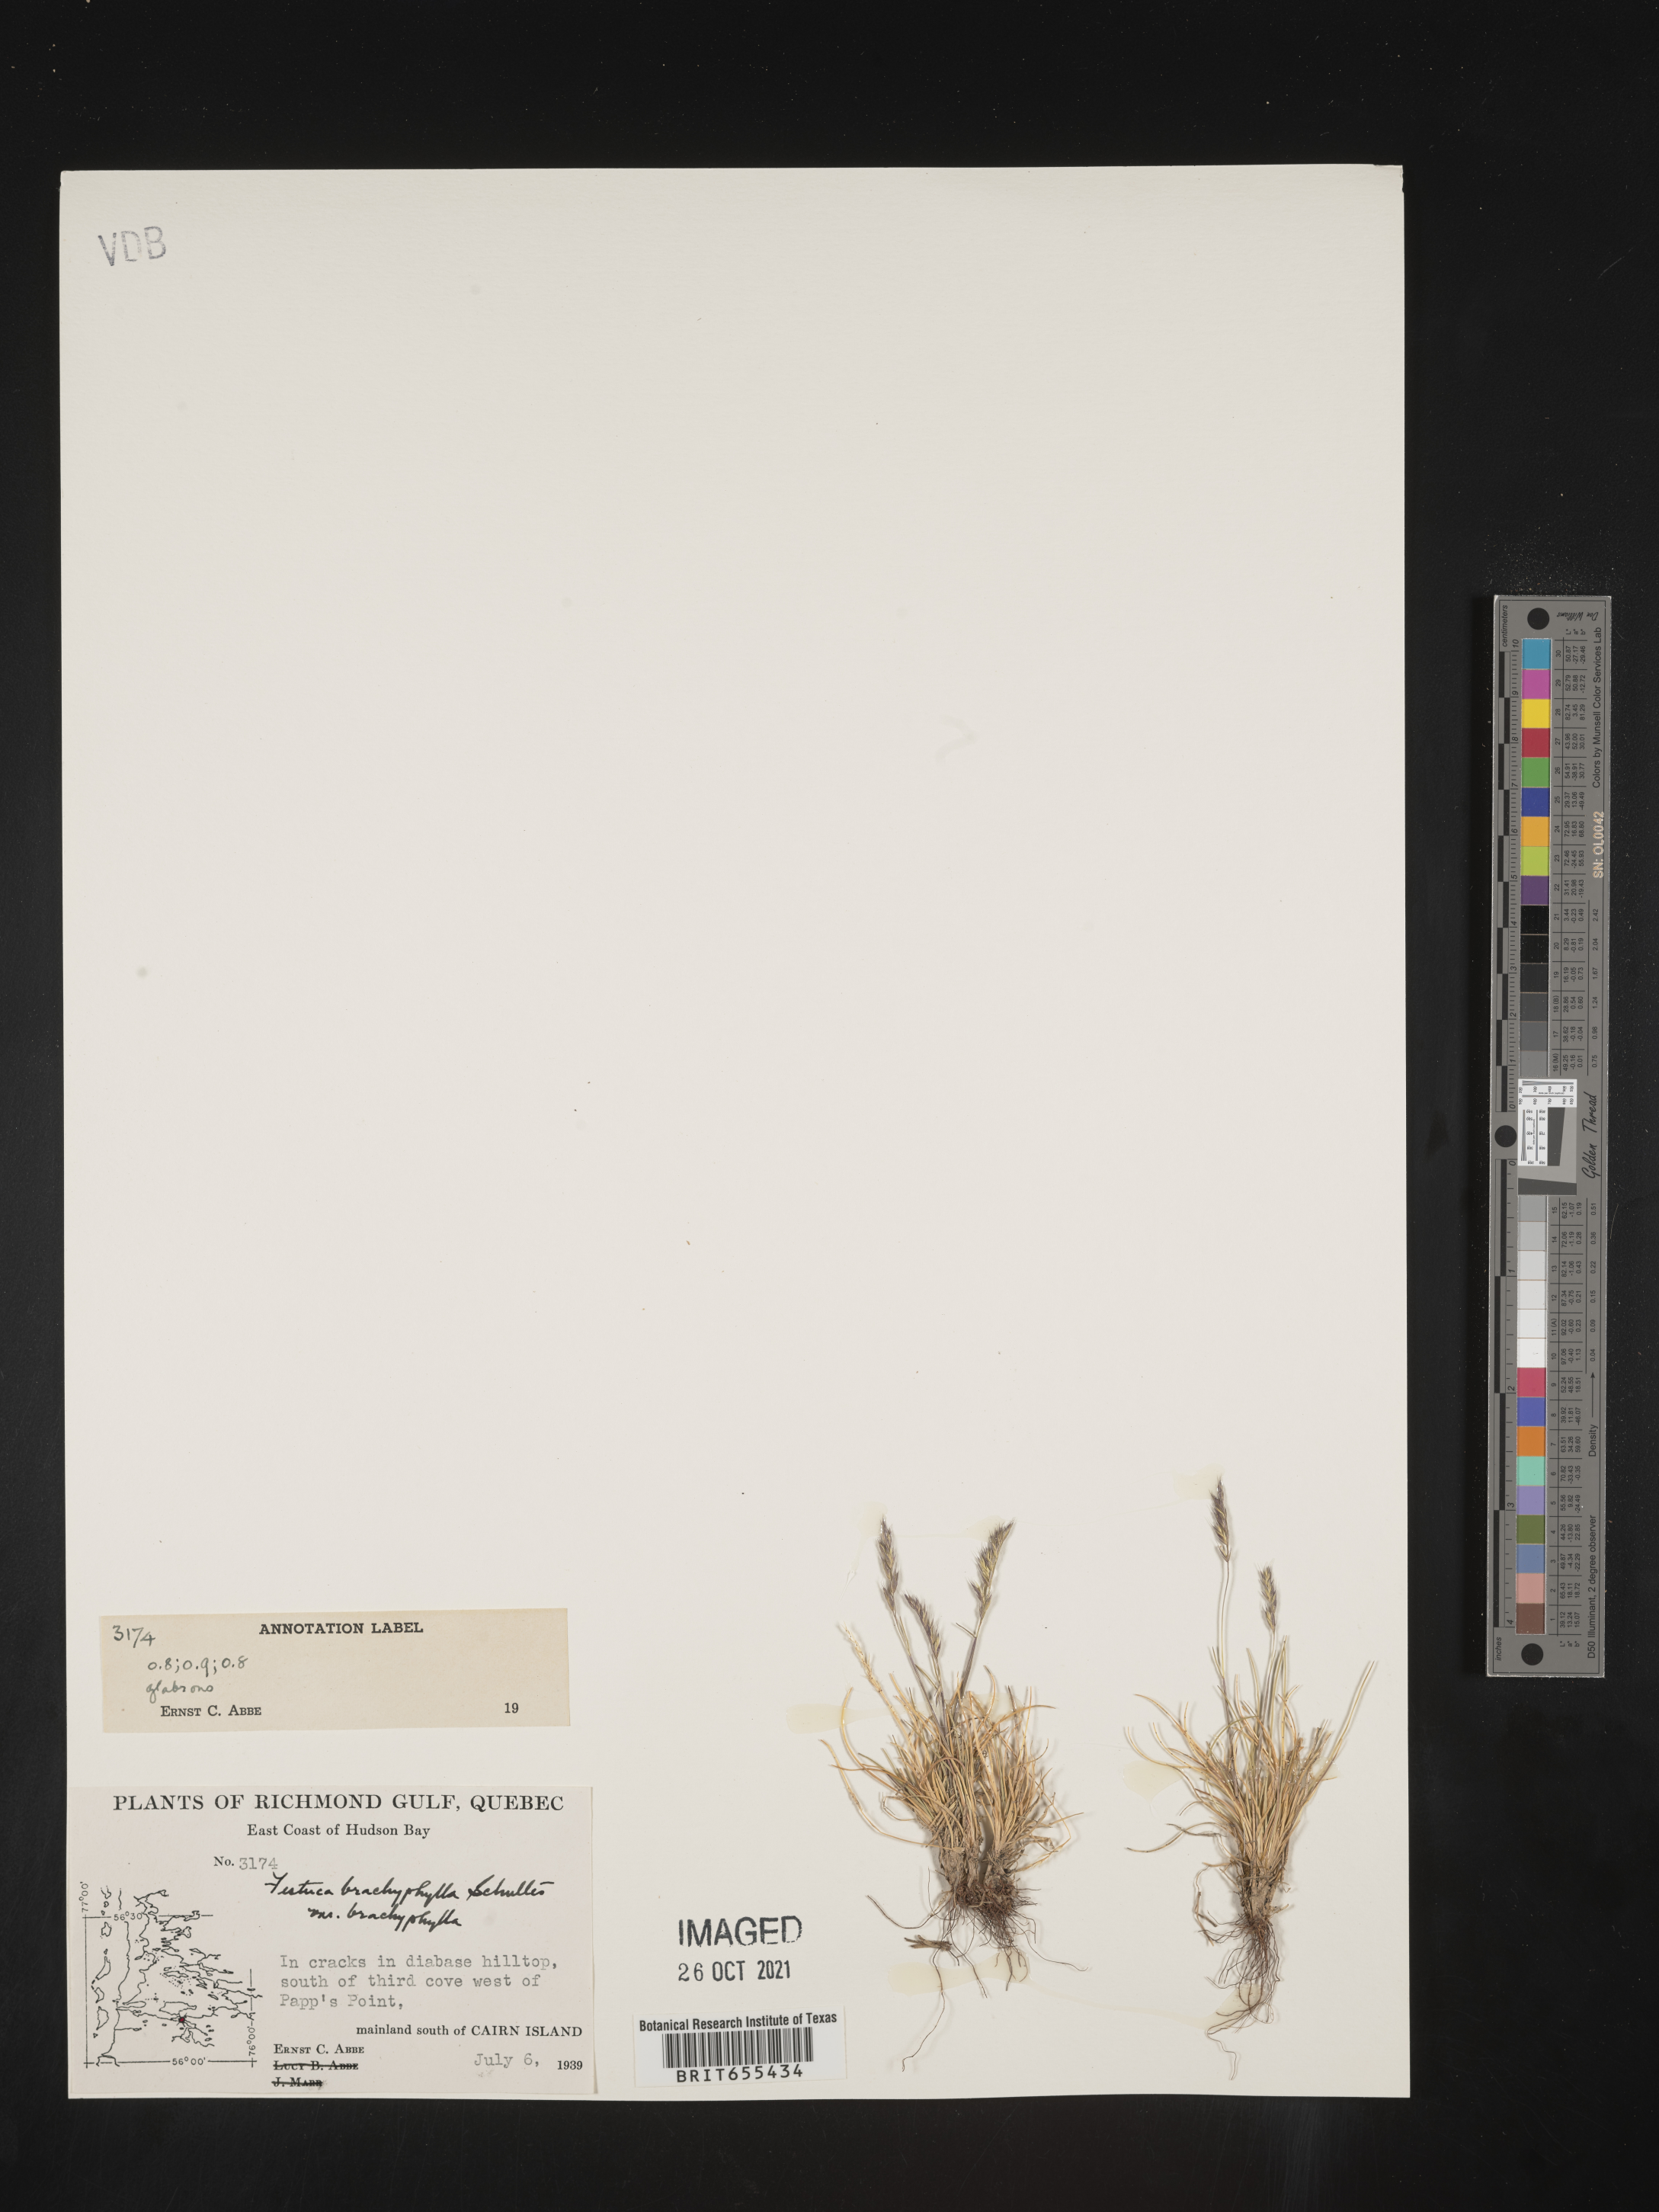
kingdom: Plantae
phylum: Tracheophyta
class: Liliopsida
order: Poales
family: Poaceae
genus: Festuca
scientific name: Festuca
